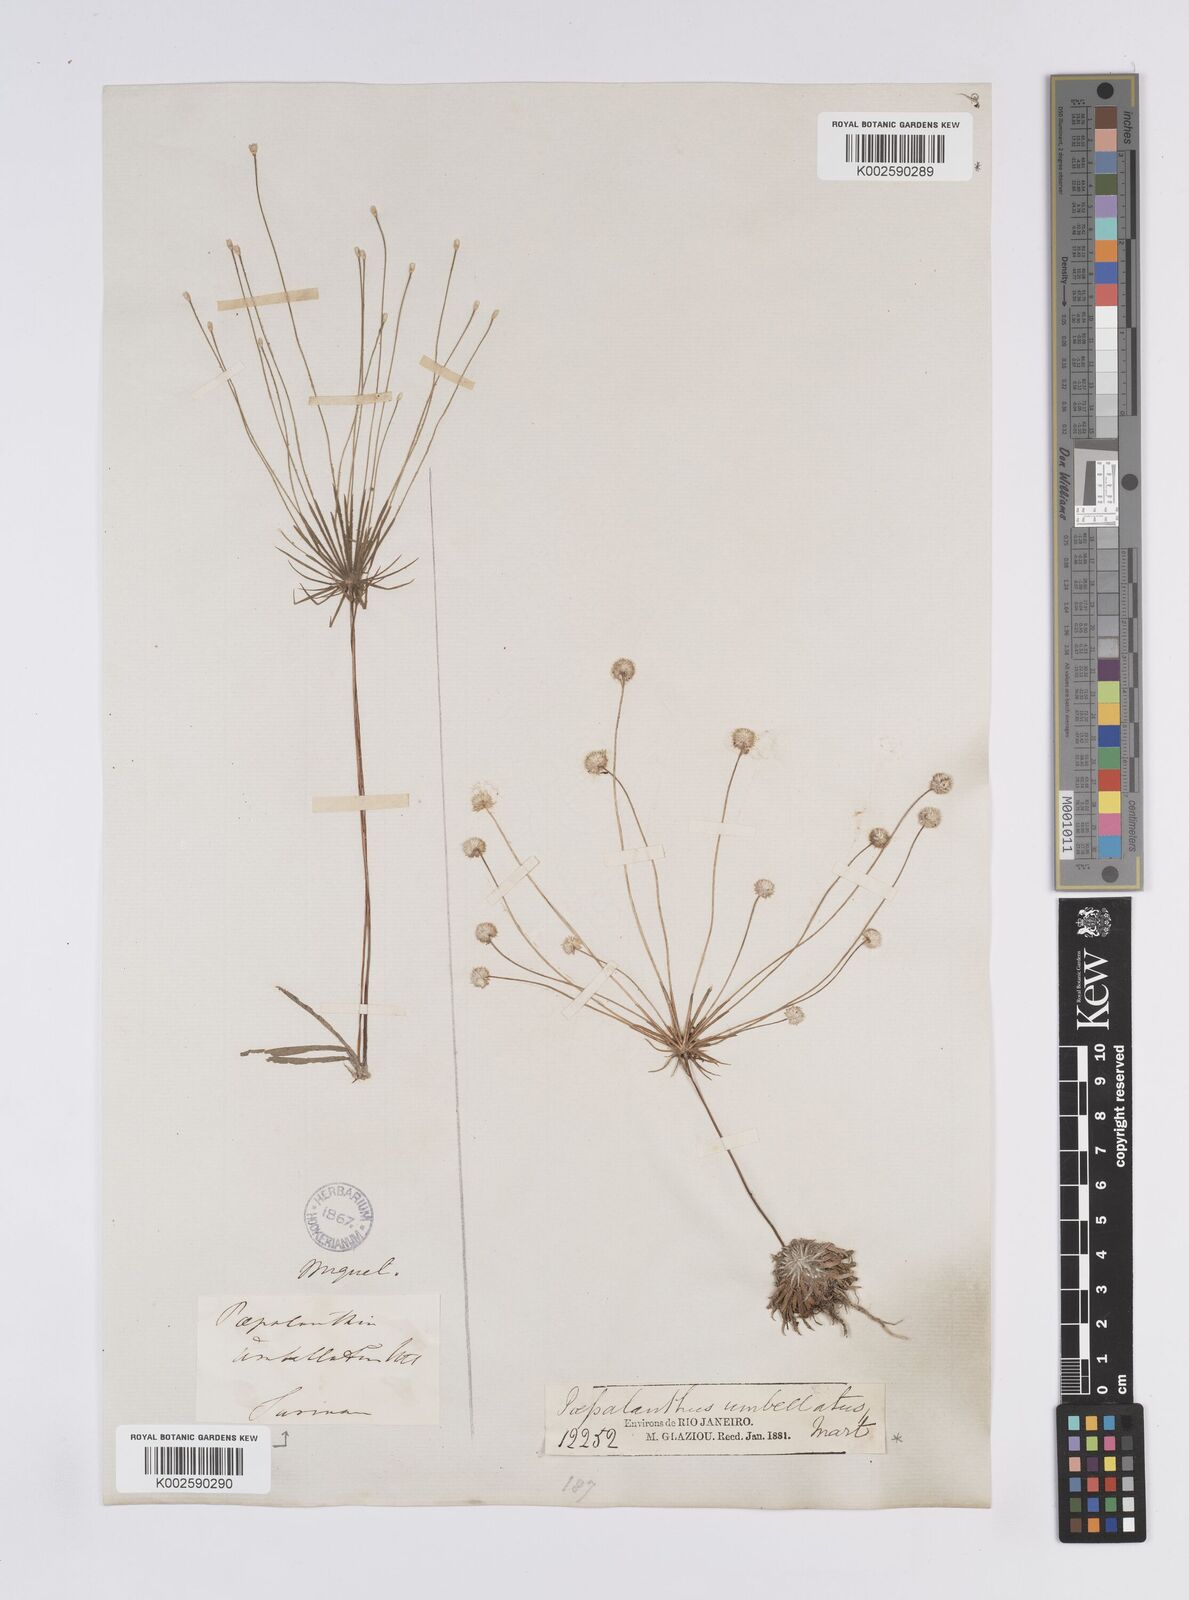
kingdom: Plantae
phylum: Tracheophyta
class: Liliopsida
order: Poales
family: Eriocaulaceae
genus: Syngonanthus
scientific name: Syngonanthus umbellatus
